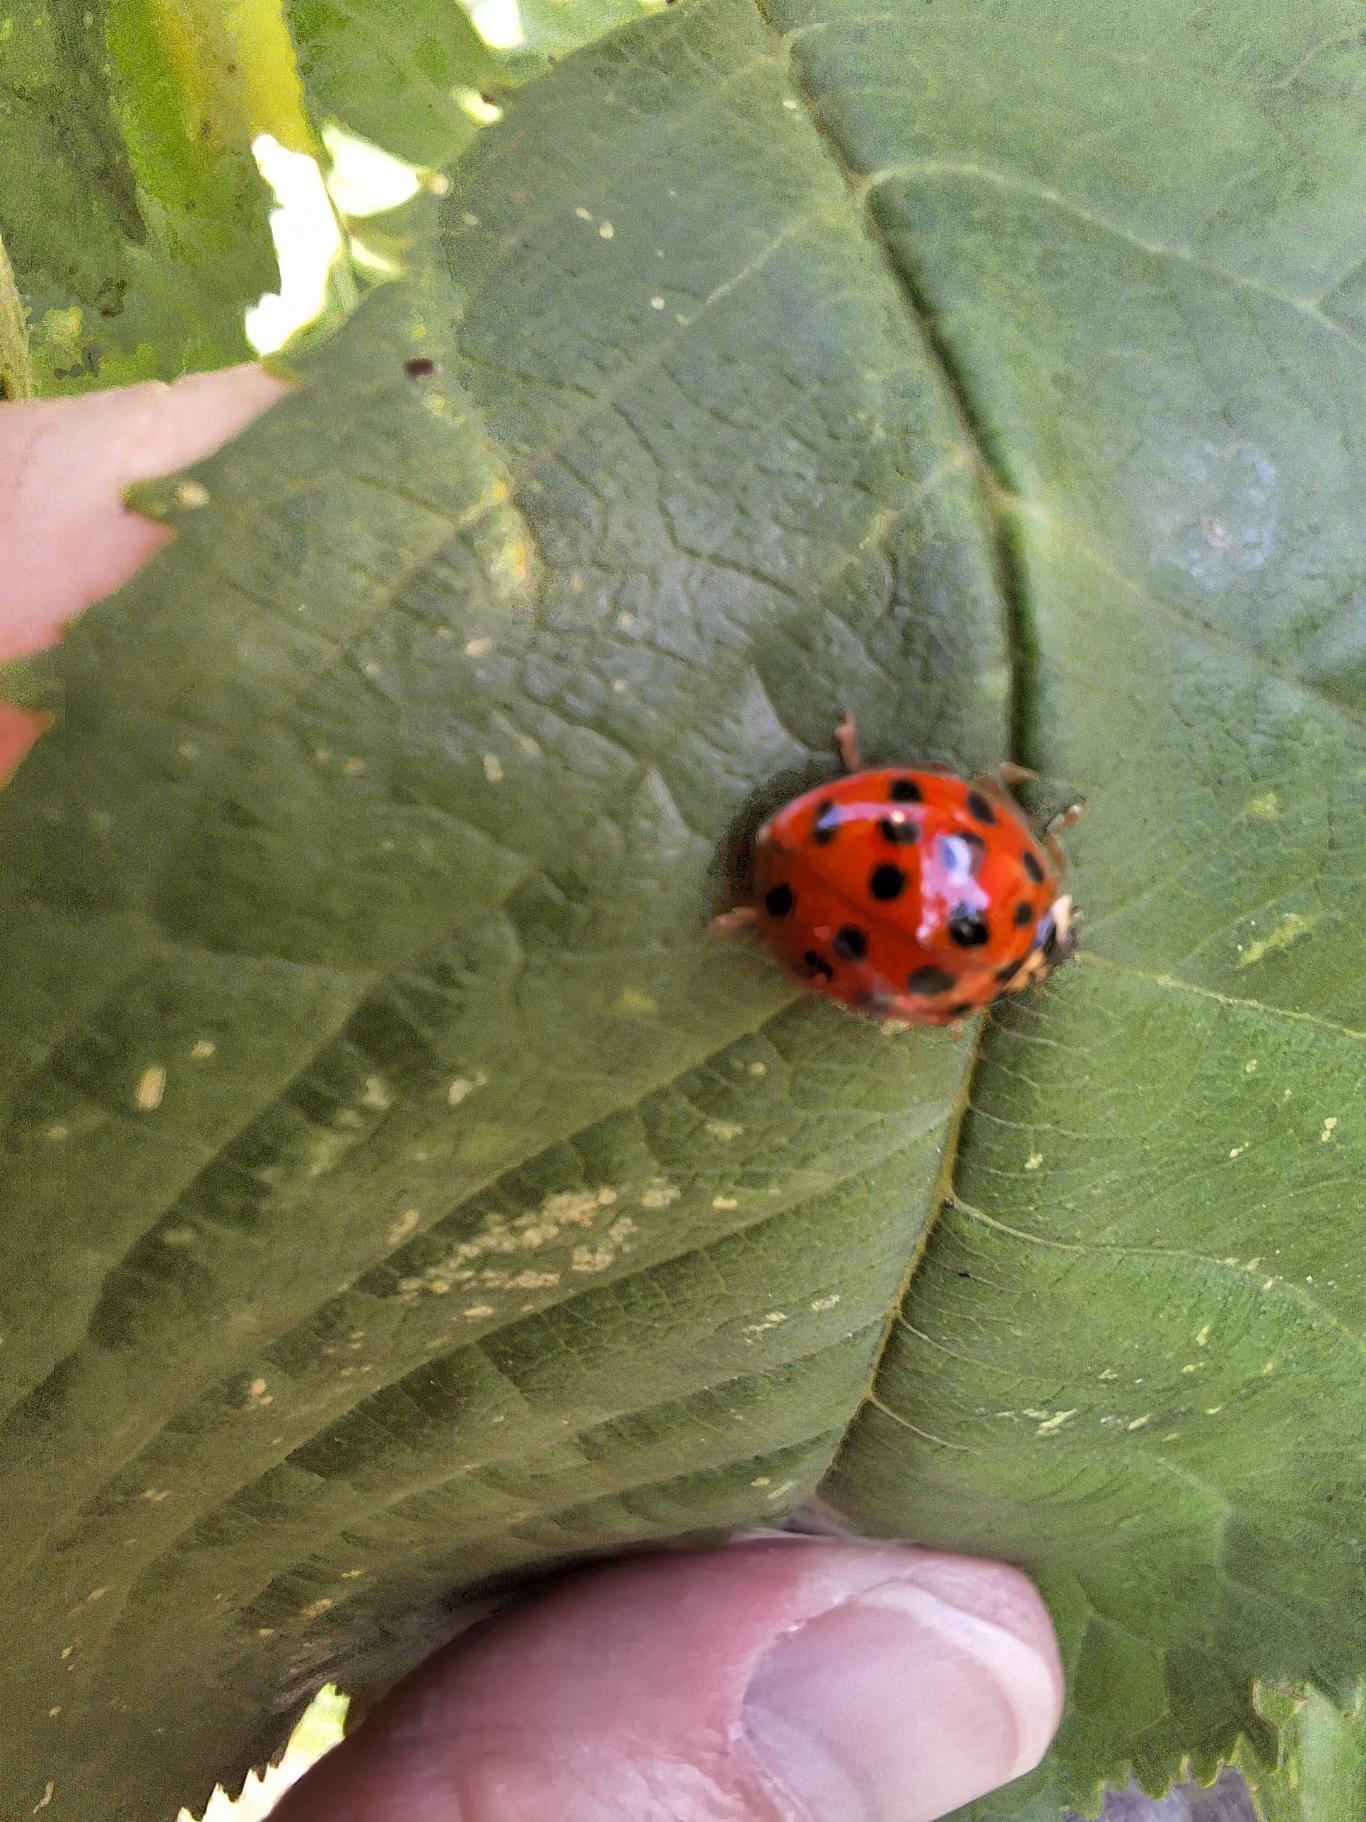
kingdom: Animalia
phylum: Arthropoda
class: Insecta
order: Coleoptera
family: Coccinellidae
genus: Harmonia
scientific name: Harmonia axyridis
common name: Harlekinmariehøne
